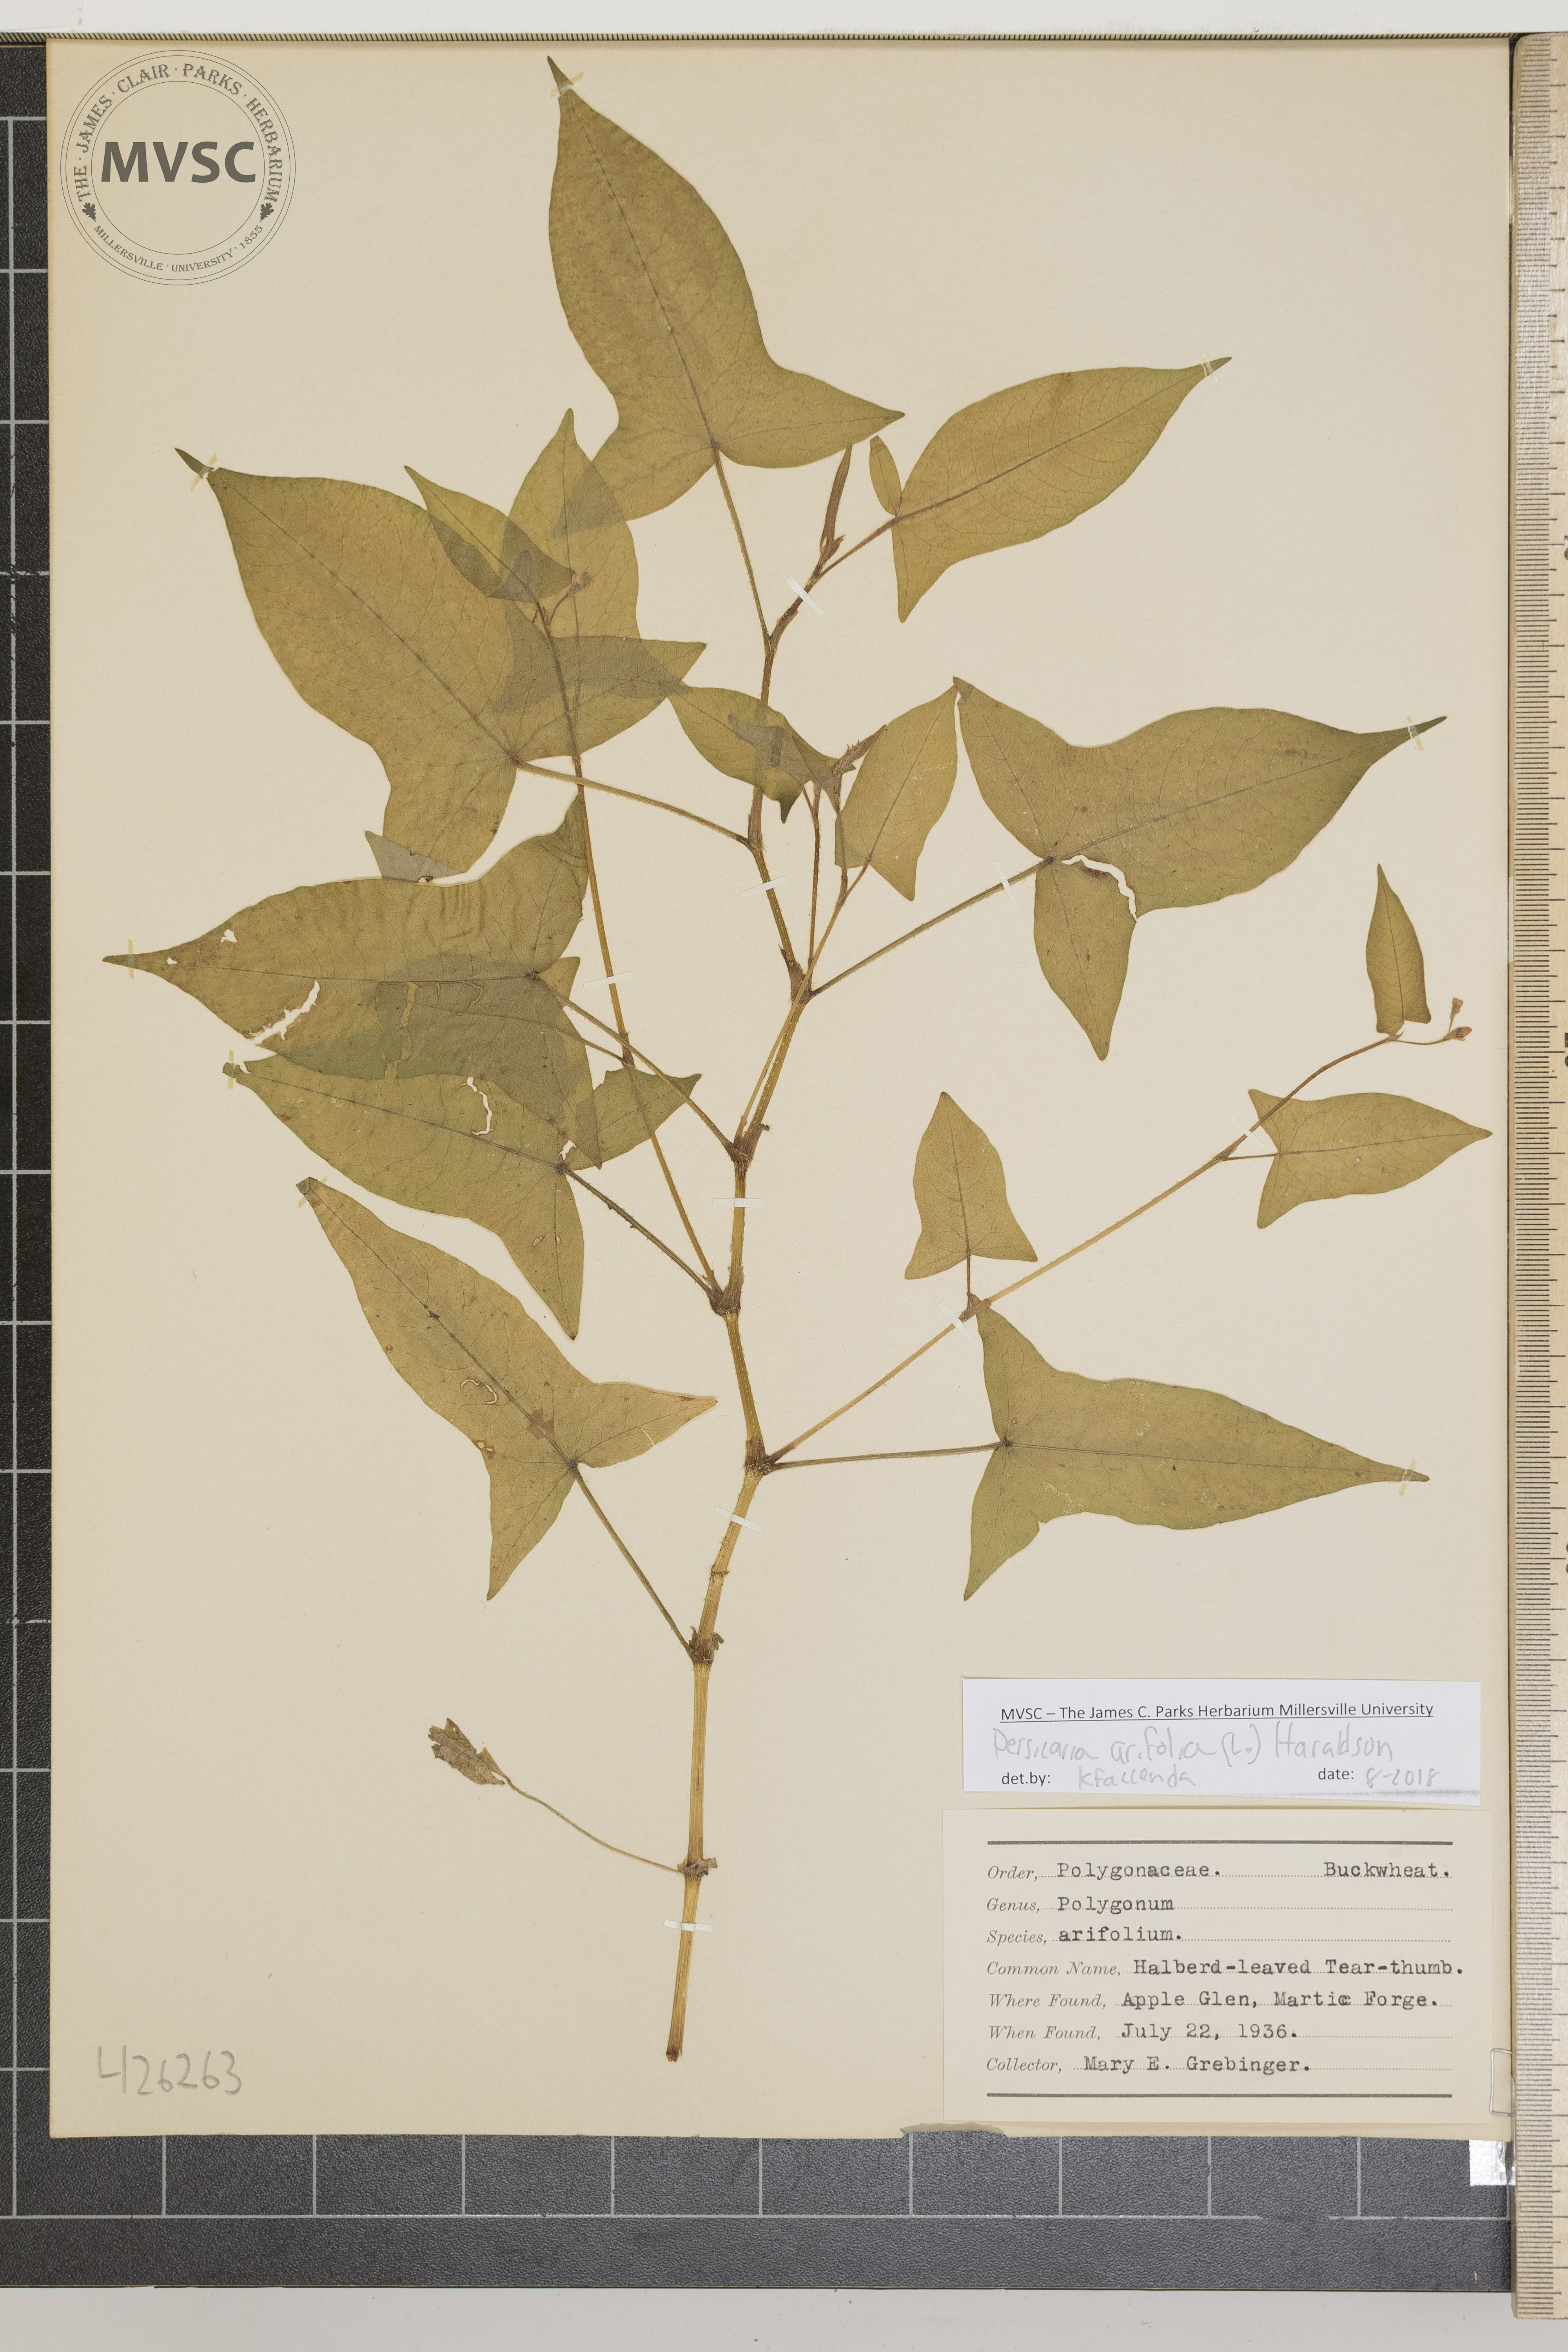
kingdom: Plantae
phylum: Tracheophyta
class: Magnoliopsida
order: Caryophyllales
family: Polygonaceae
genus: Persicaria
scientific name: Persicaria arifolia
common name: Halberd-leaved tear-thumb
